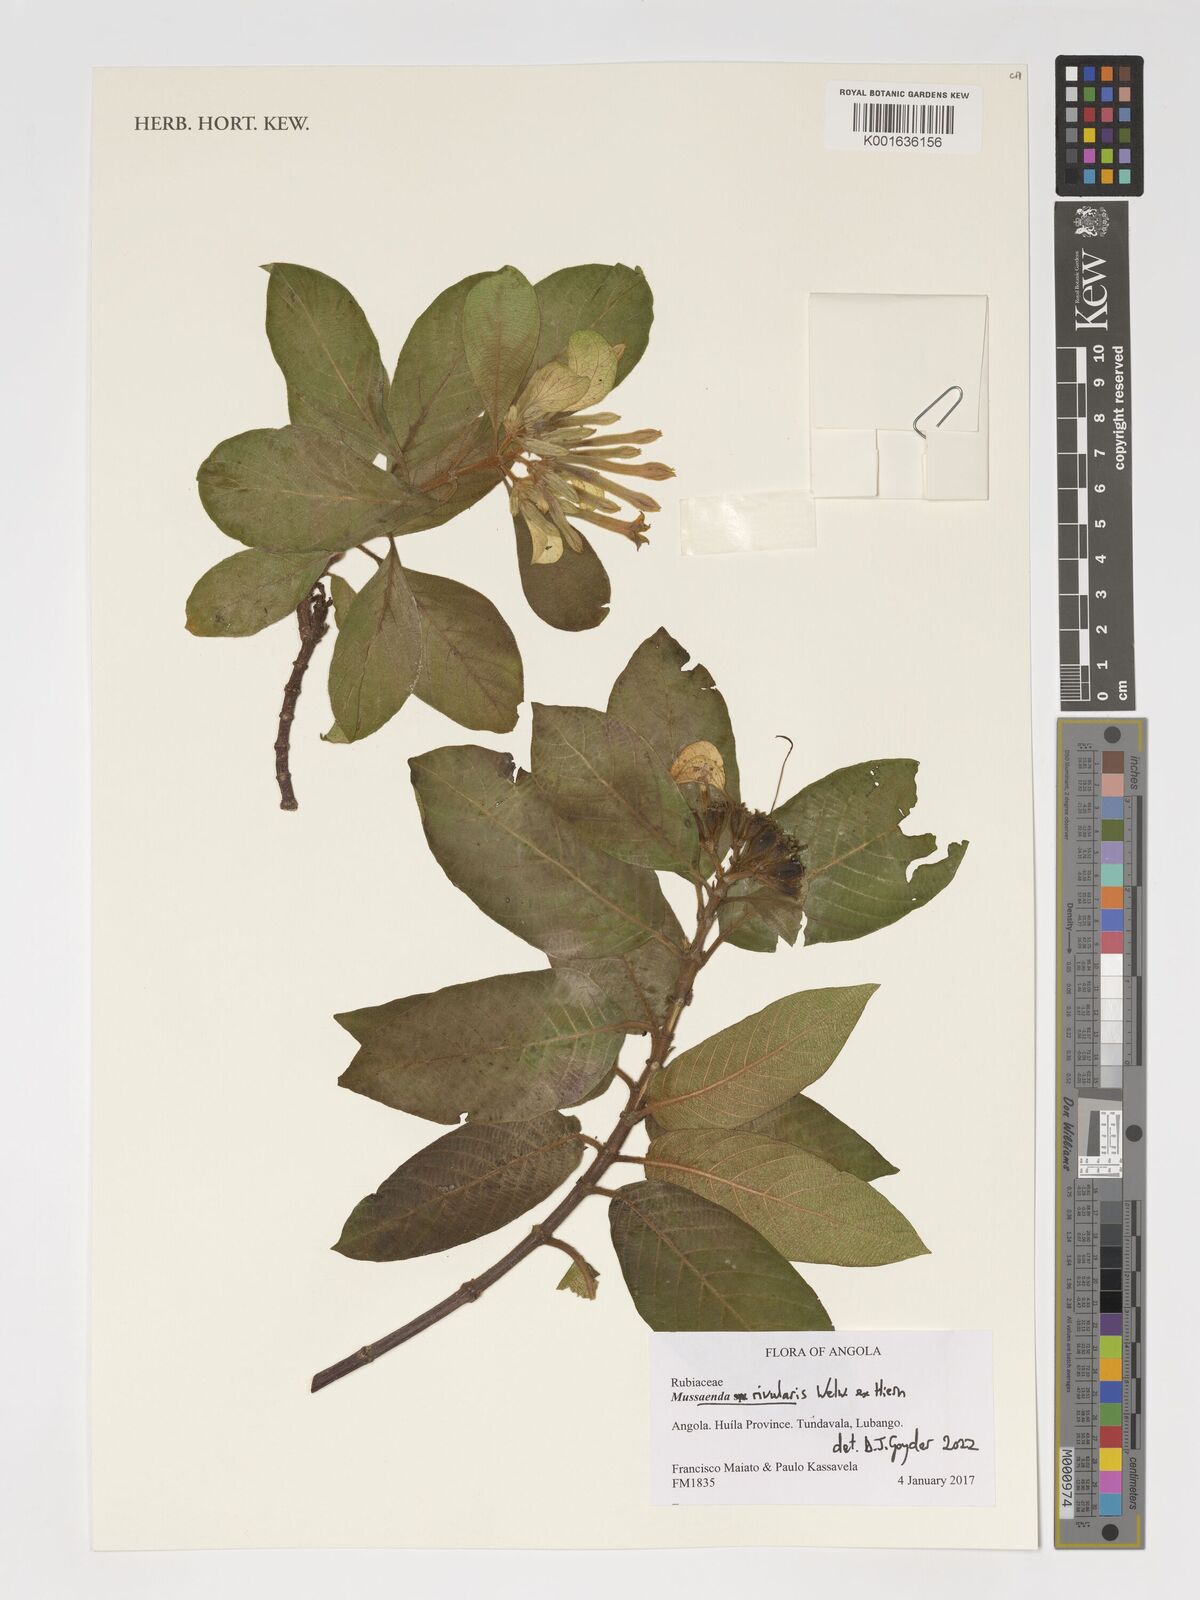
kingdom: Plantae
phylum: Tracheophyta
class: Magnoliopsida
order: Gentianales
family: Rubiaceae
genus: Mussaenda
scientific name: Mussaenda rivularis
